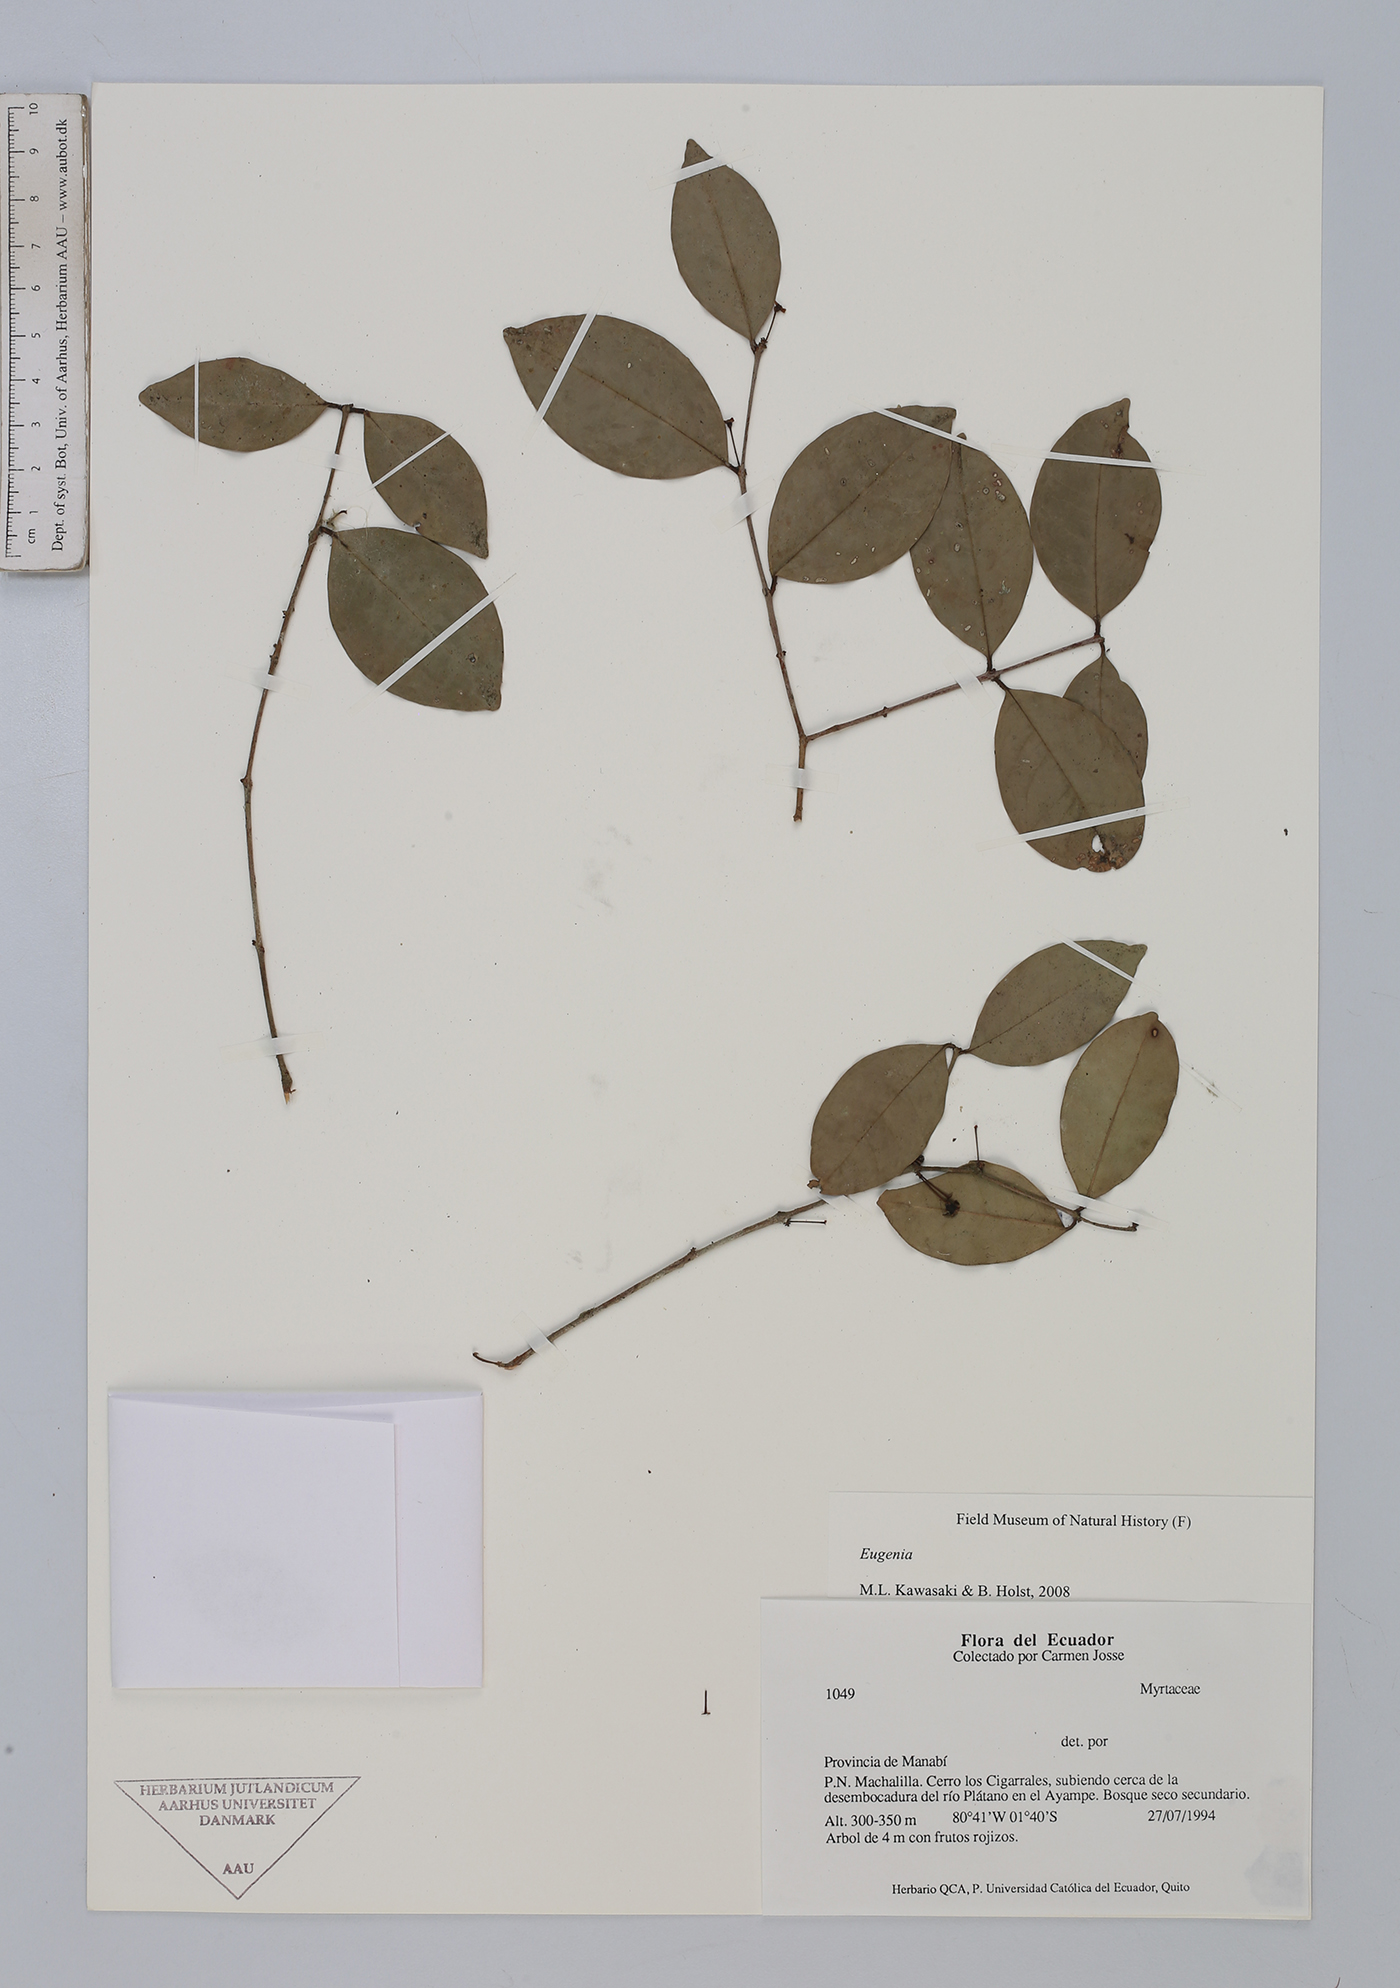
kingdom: Plantae
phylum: Tracheophyta
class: Magnoliopsida
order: Myrtales
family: Myrtaceae
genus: Eugenia
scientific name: Eugenia
